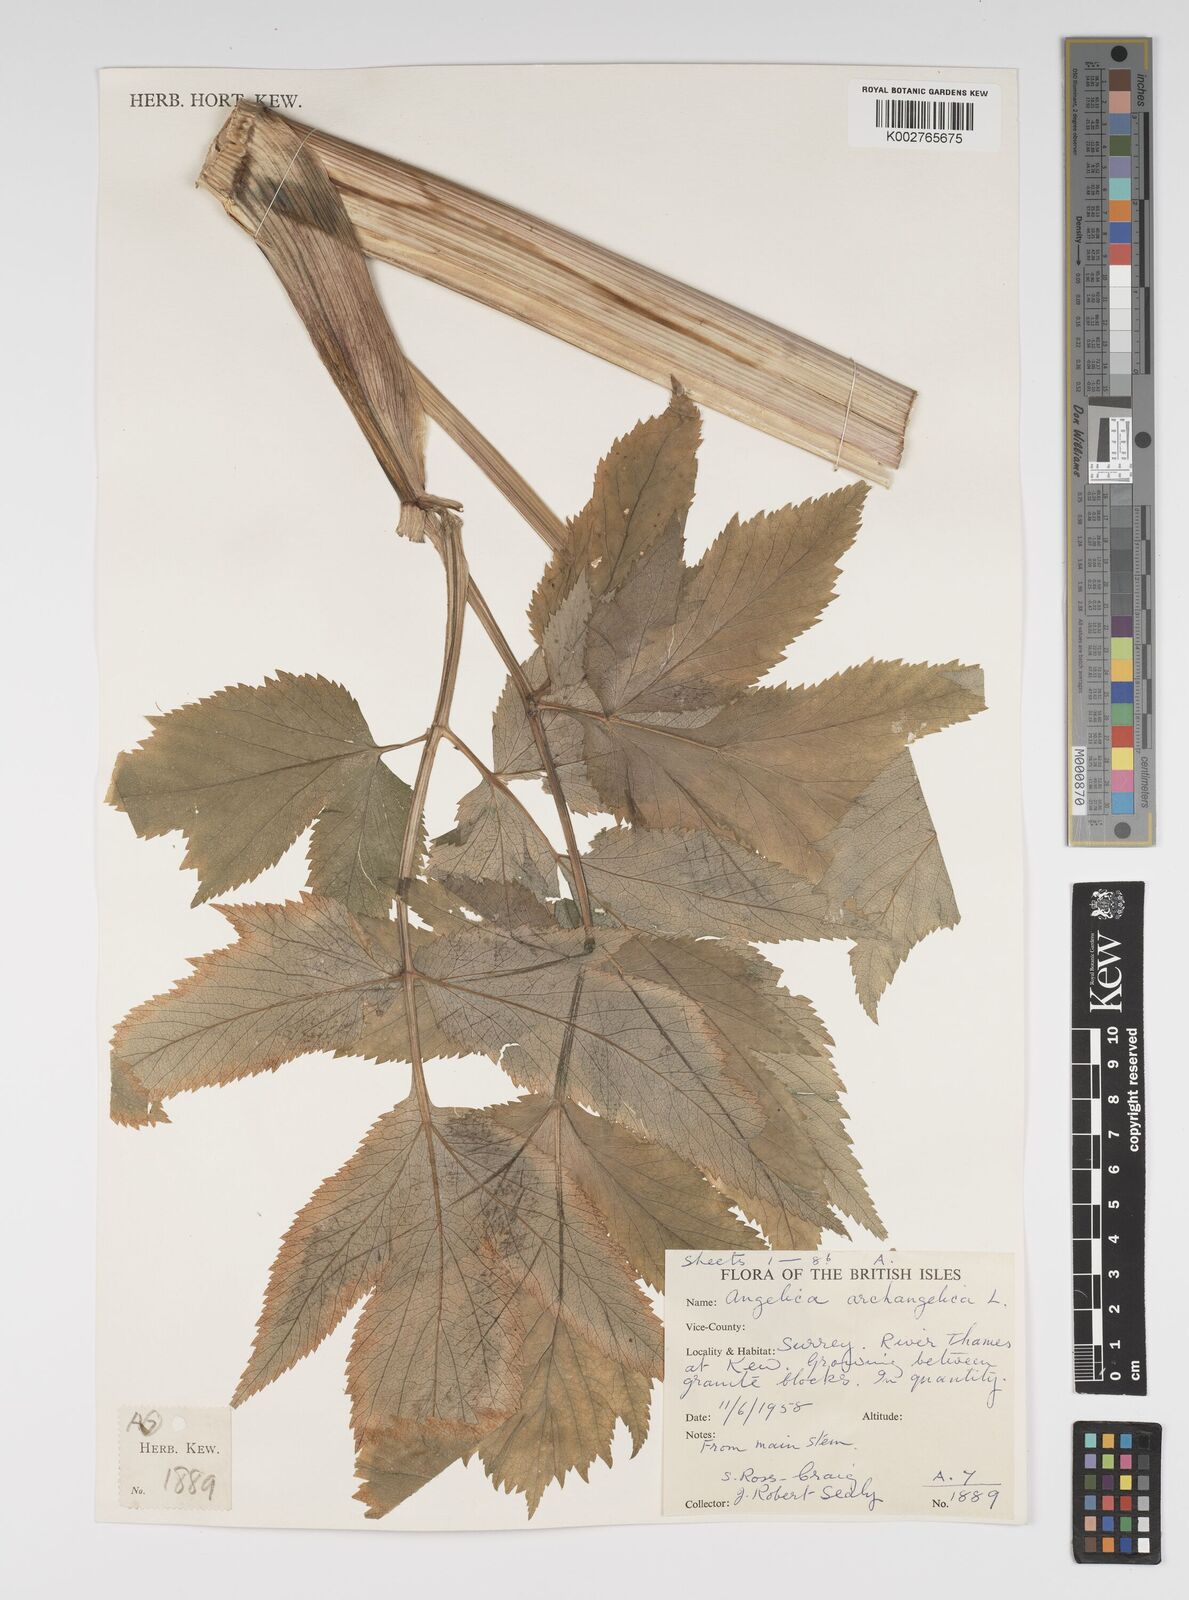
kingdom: Plantae
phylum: Tracheophyta
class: Magnoliopsida
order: Apiales
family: Apiaceae
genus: Angelica
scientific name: Angelica archangelica
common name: Garden angelica
